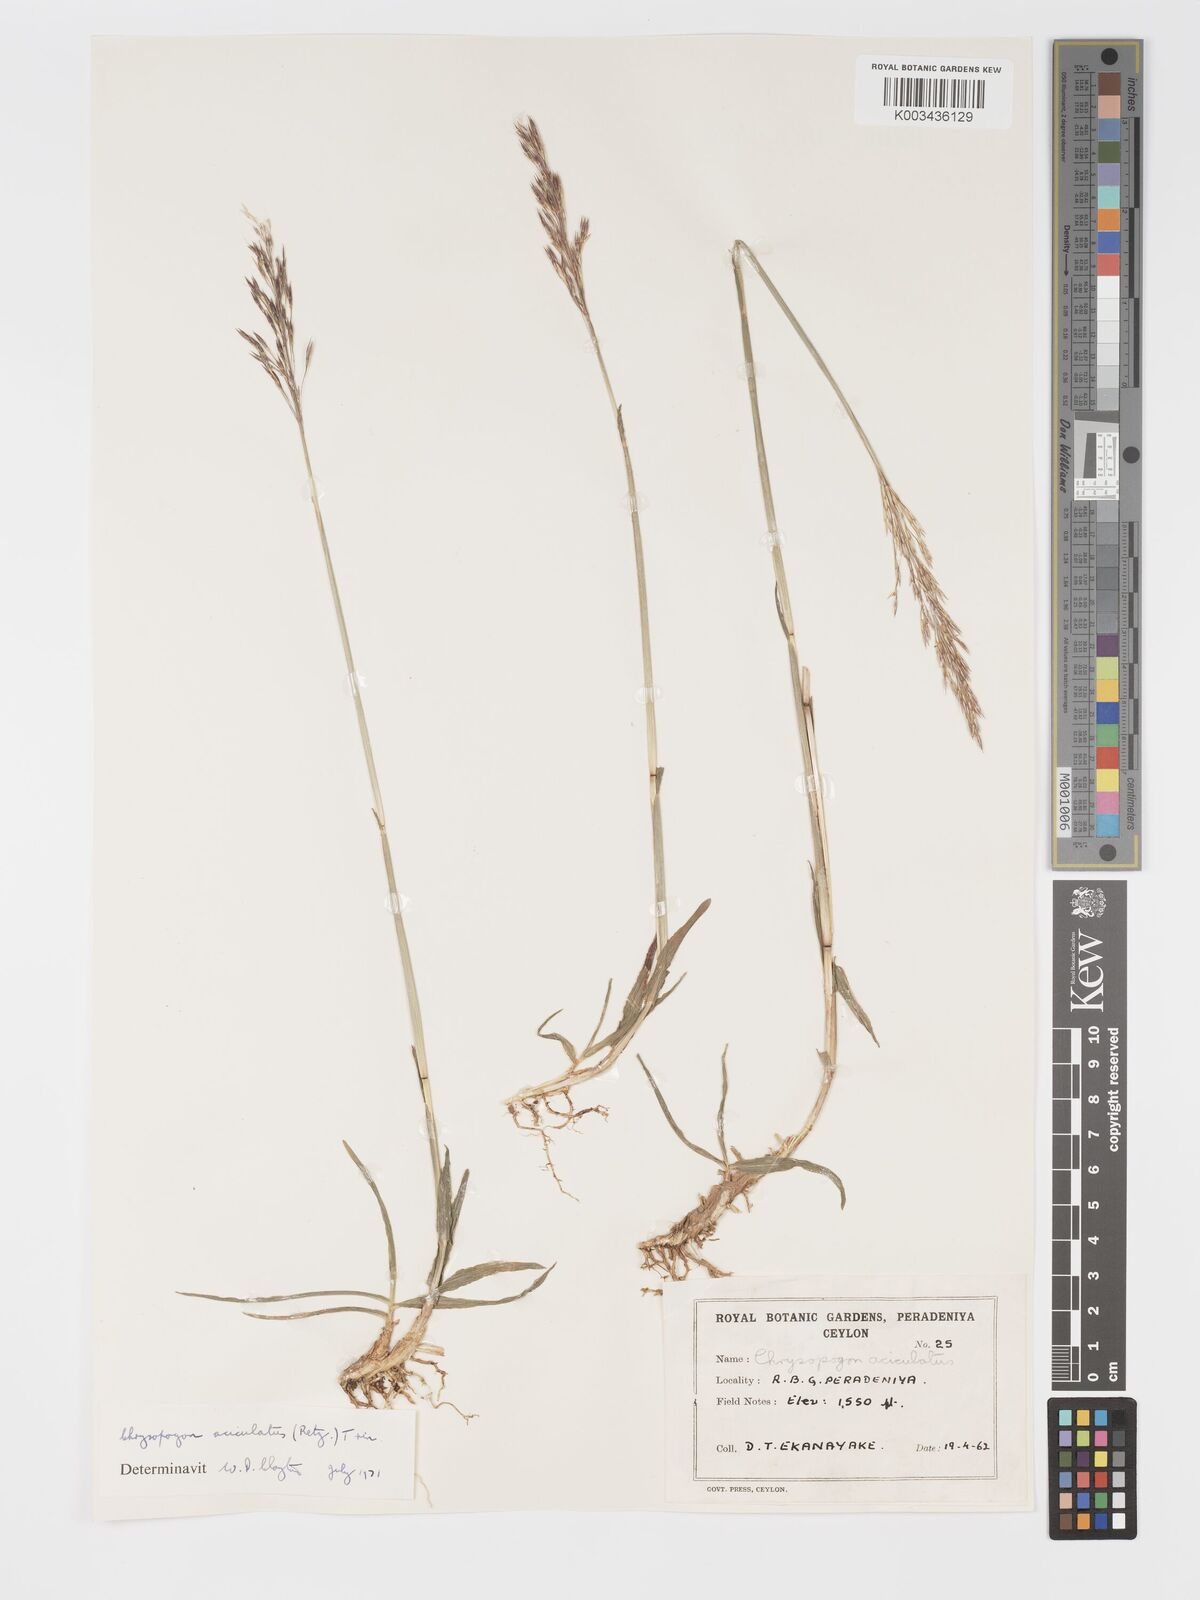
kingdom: Plantae
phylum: Tracheophyta
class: Liliopsida
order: Poales
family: Poaceae
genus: Chrysopogon
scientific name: Chrysopogon aciculatus
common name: Pilipiliula
